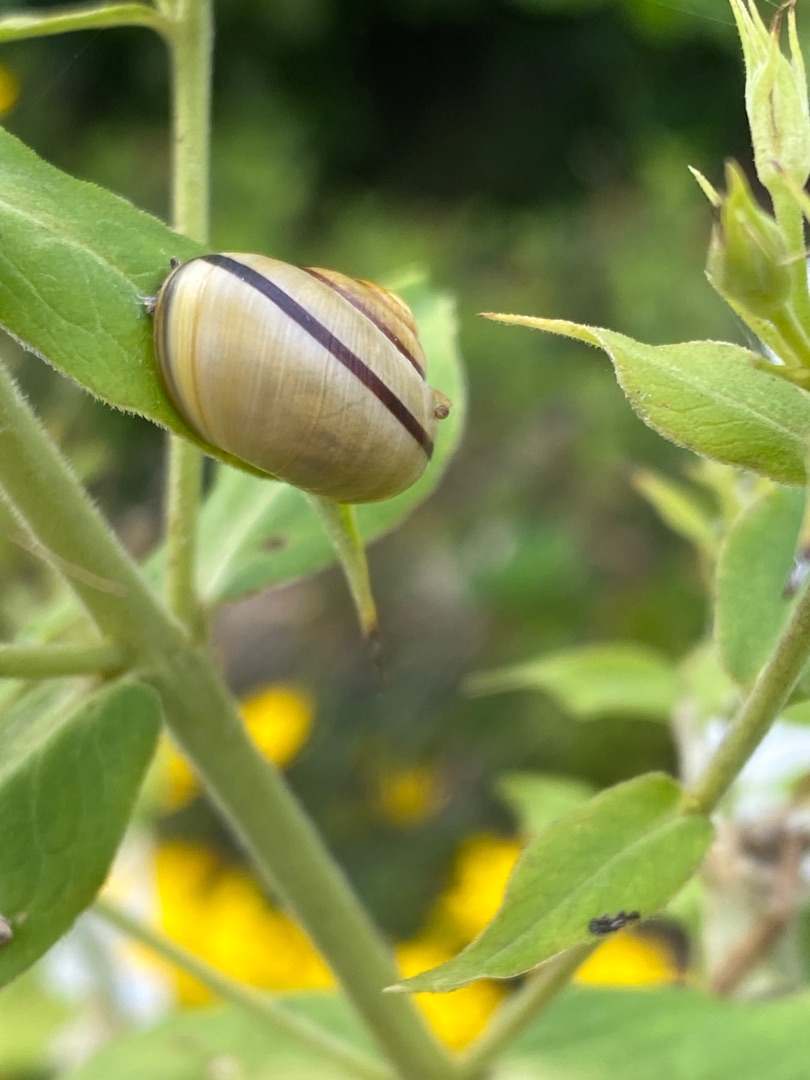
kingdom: Animalia
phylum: Mollusca
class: Gastropoda
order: Stylommatophora
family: Helicidae
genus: Cepaea
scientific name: Cepaea nemoralis
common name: Lundsnegl
